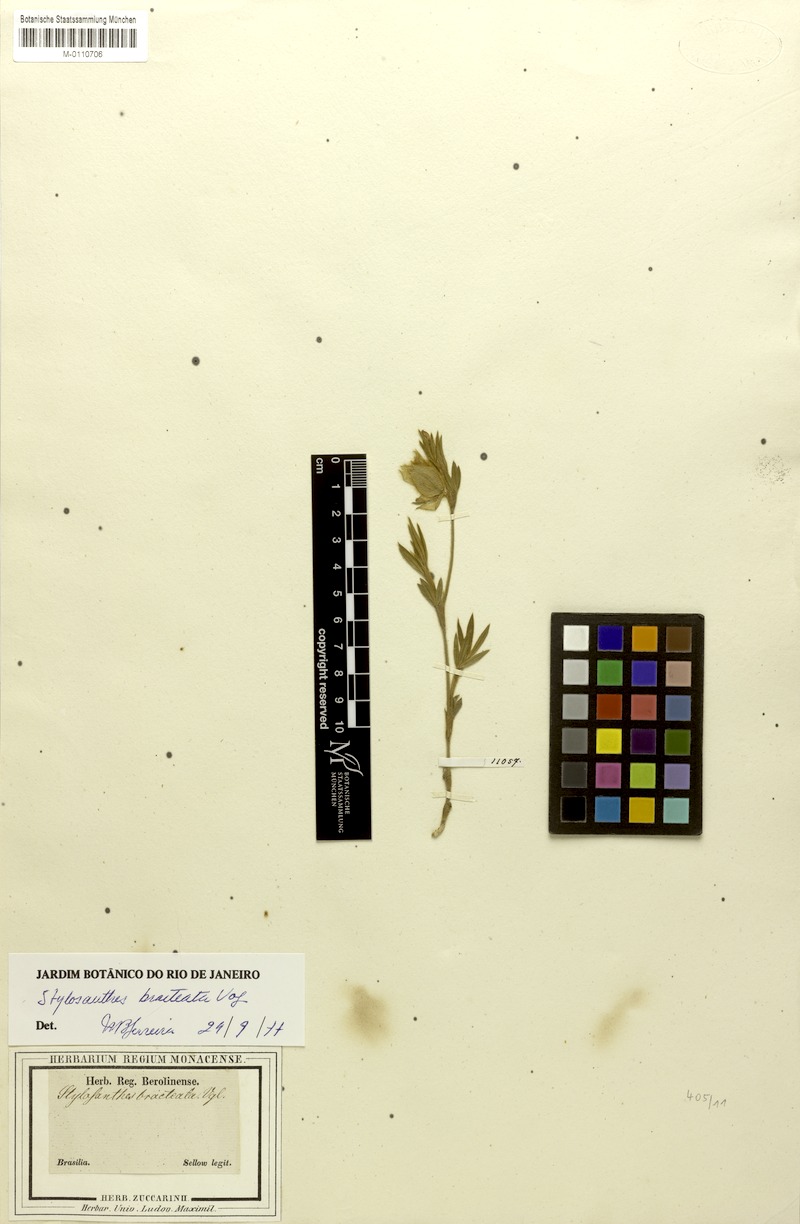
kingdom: Plantae
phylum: Tracheophyta
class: Magnoliopsida
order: Fabales
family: Fabaceae
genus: Stylosanthes
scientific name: Stylosanthes bracteata
